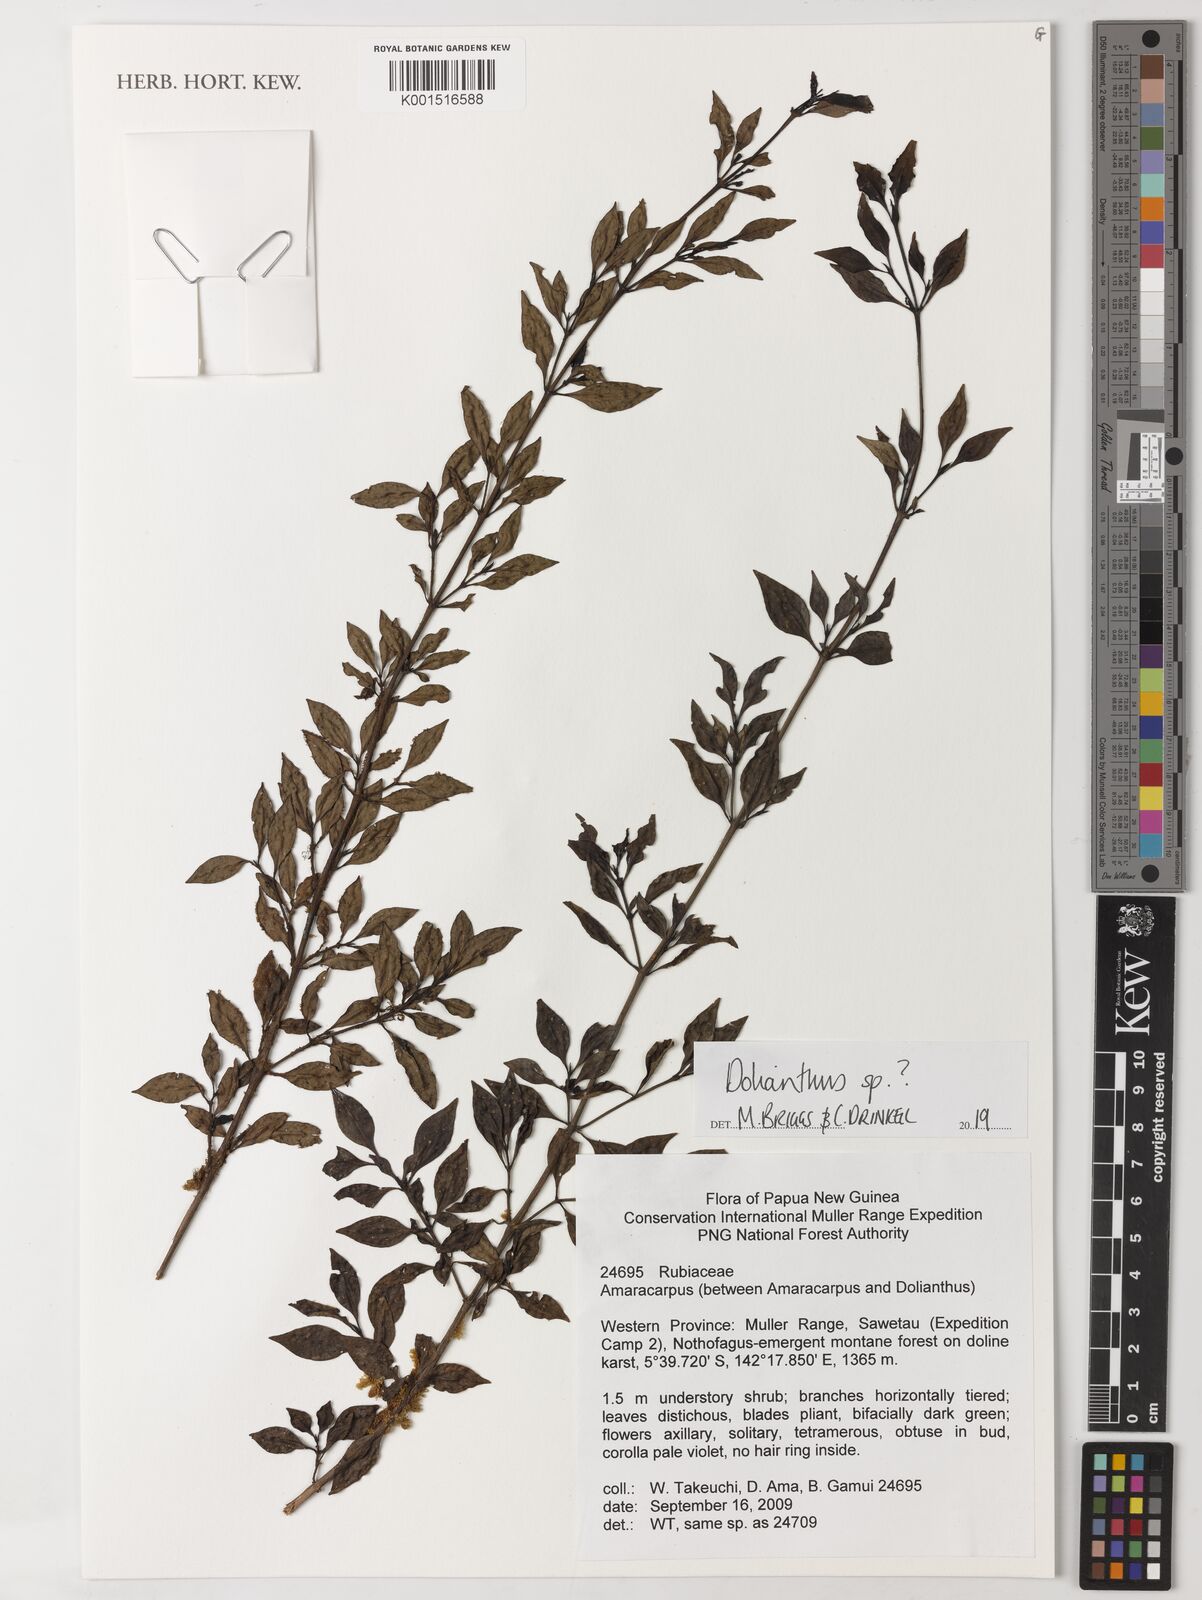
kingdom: Plantae
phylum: Tracheophyta
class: Magnoliopsida
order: Gentianales
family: Rubiaceae
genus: Dolianthus
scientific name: Dolianthus
